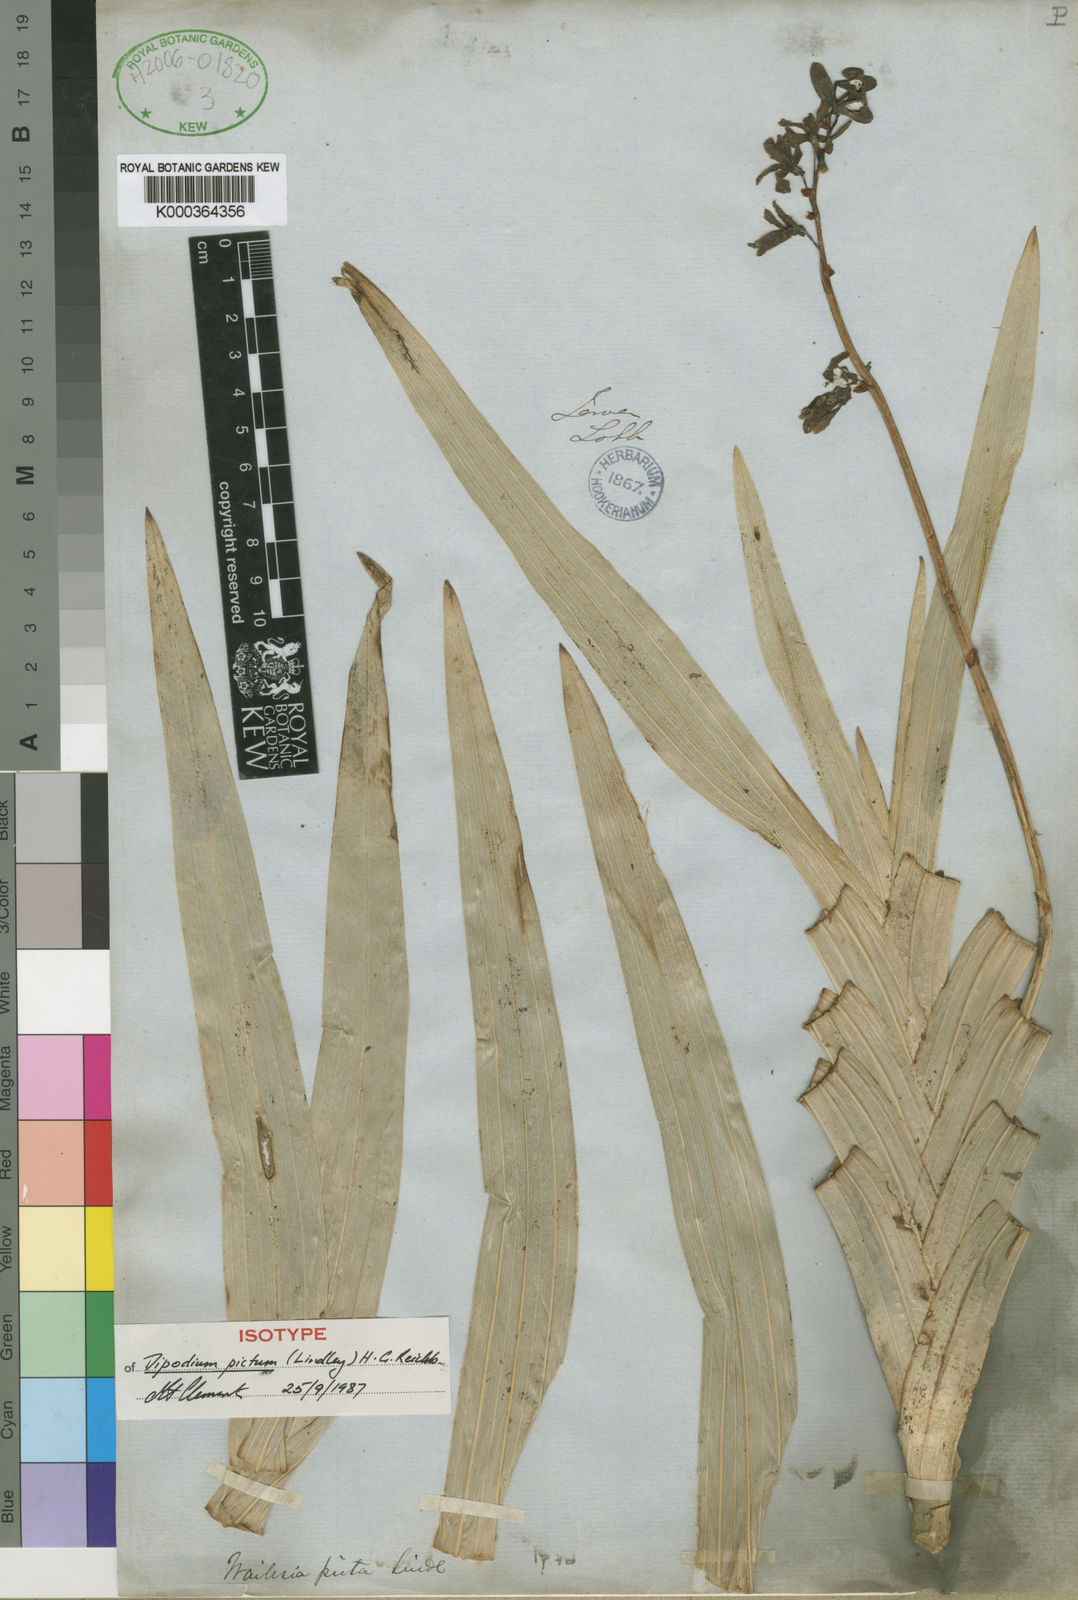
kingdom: Plantae
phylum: Tracheophyta
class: Liliopsida
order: Asparagales
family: Orchidaceae
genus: Dipodium
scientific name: Dipodium pictum
